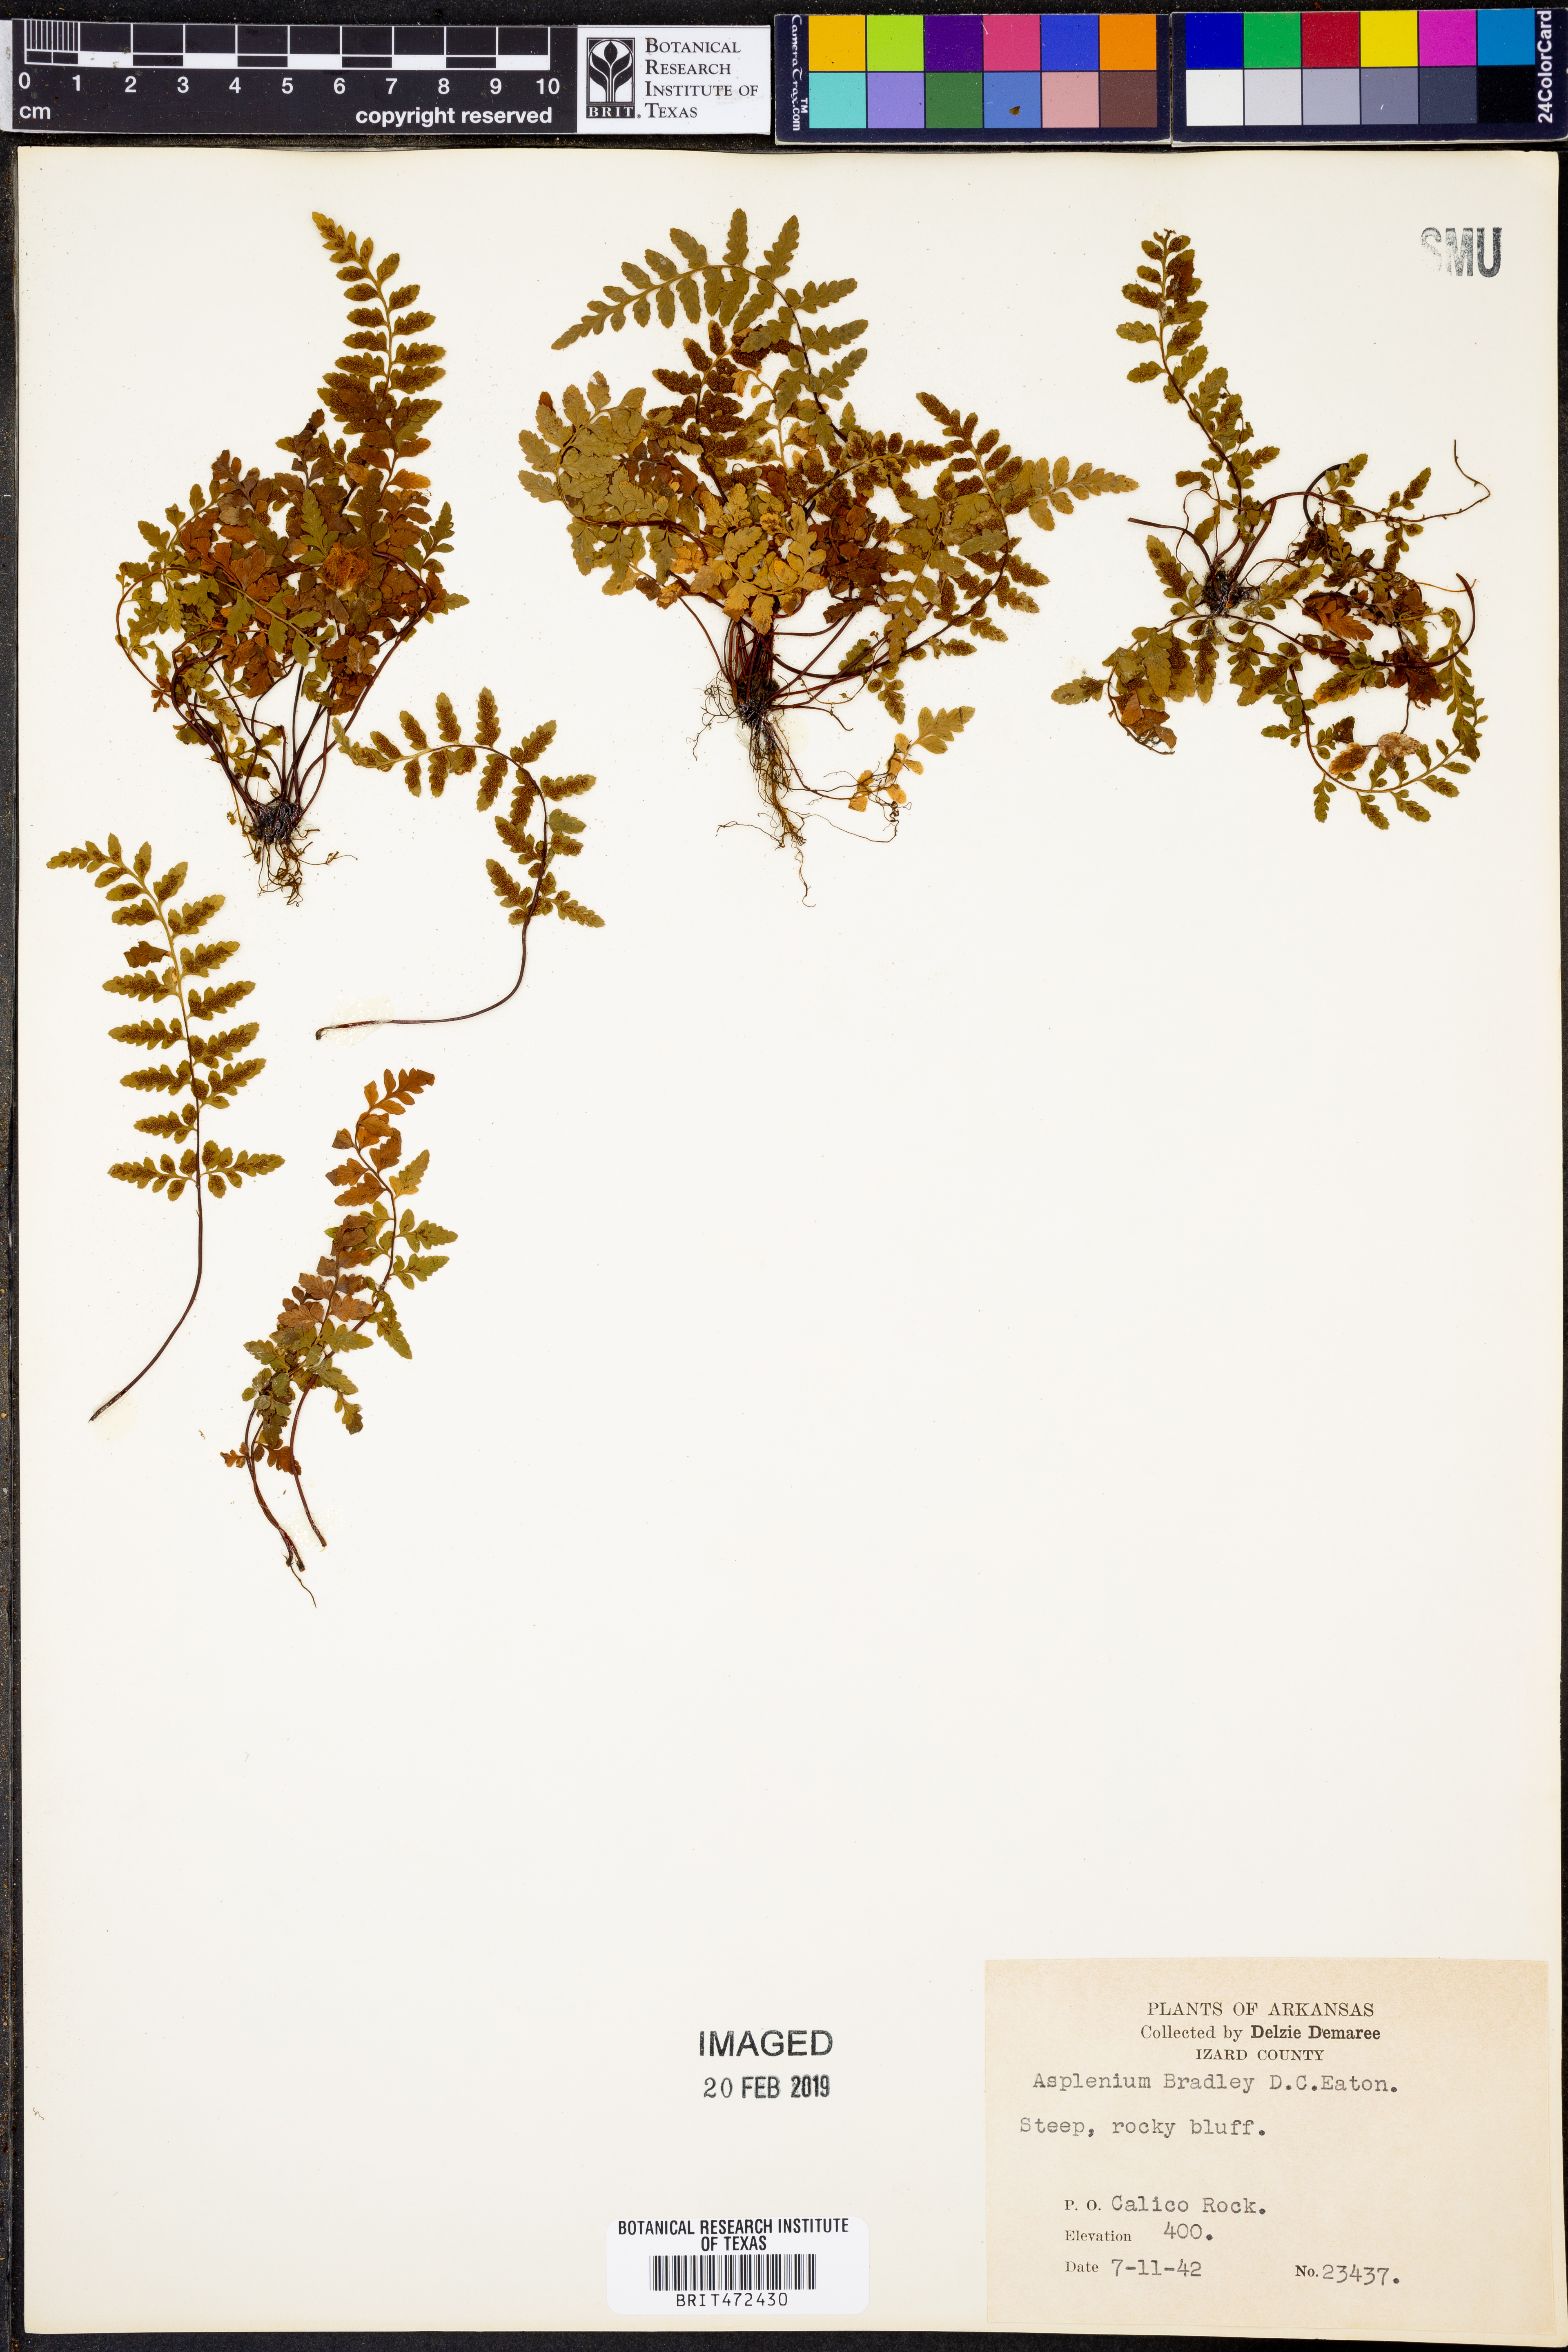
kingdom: Plantae
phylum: Tracheophyta
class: Polypodiopsida
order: Polypodiales
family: Aspleniaceae
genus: Asplenium
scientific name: Asplenium bradleyi
